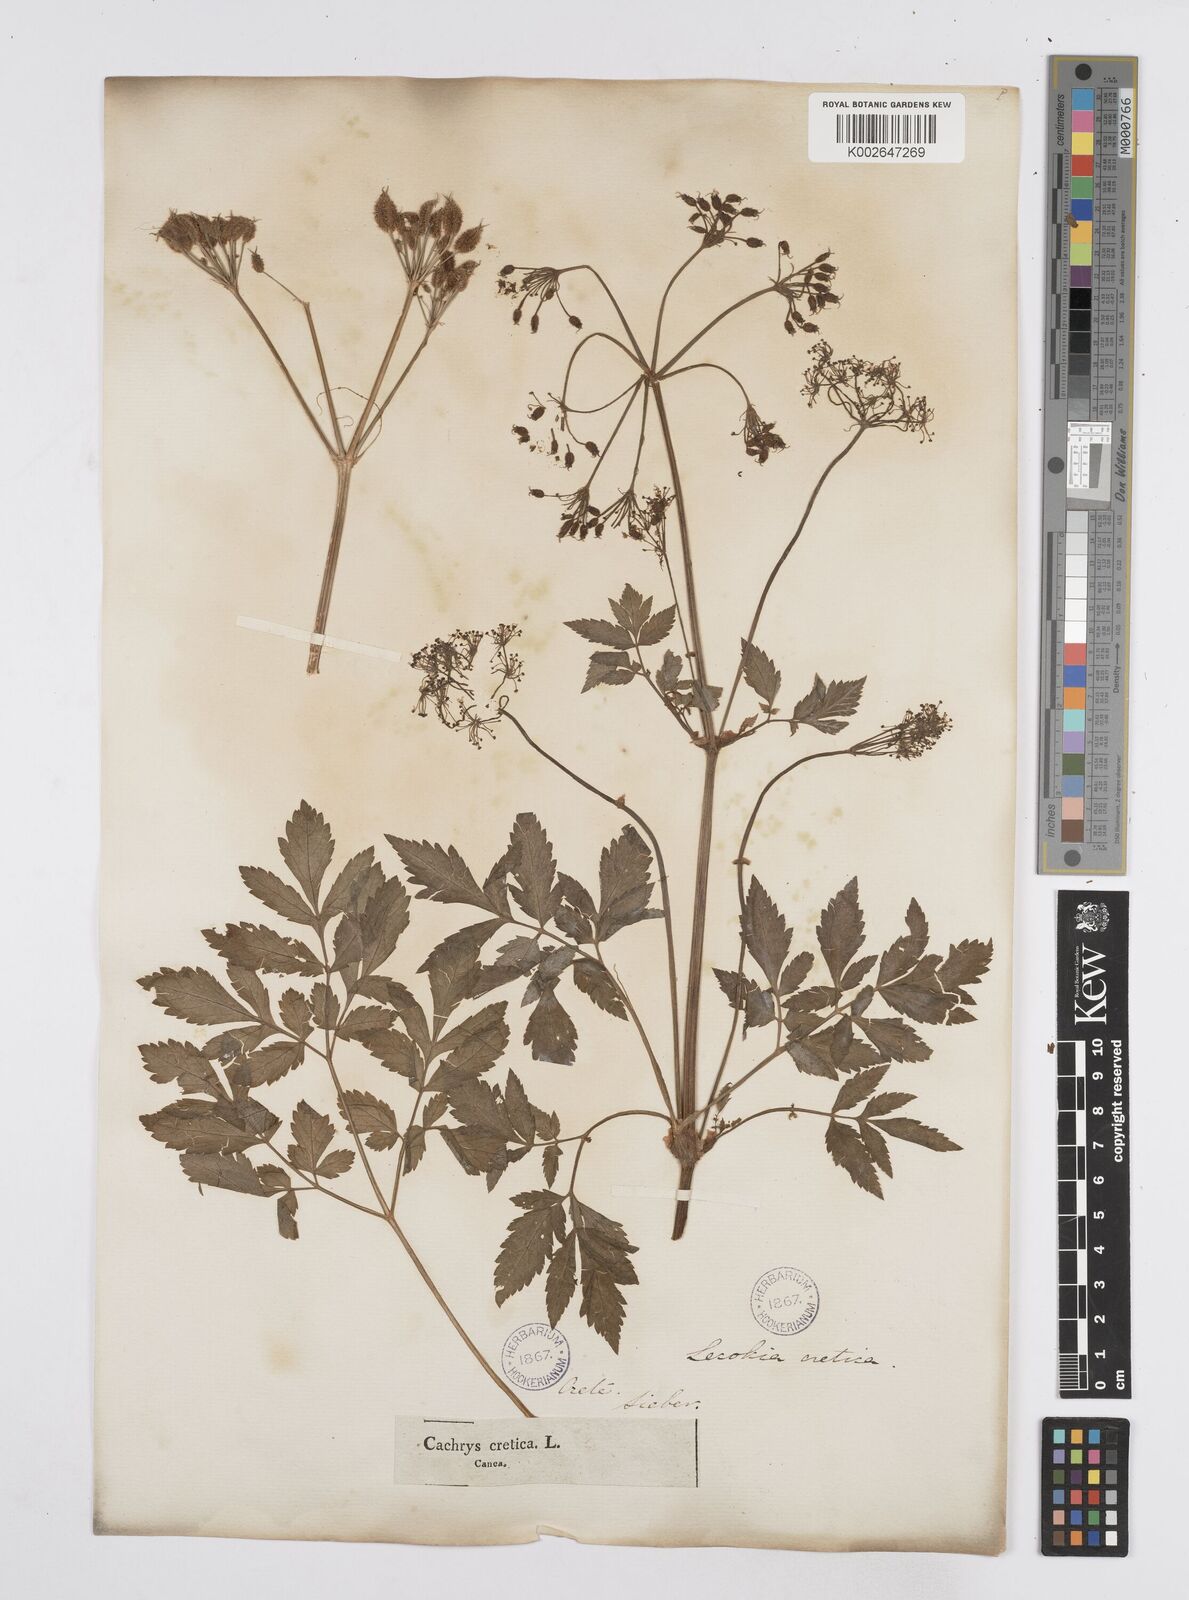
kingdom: Plantae
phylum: Tracheophyta
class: Magnoliopsida
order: Apiales
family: Apiaceae
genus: Lecokia
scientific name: Lecokia
